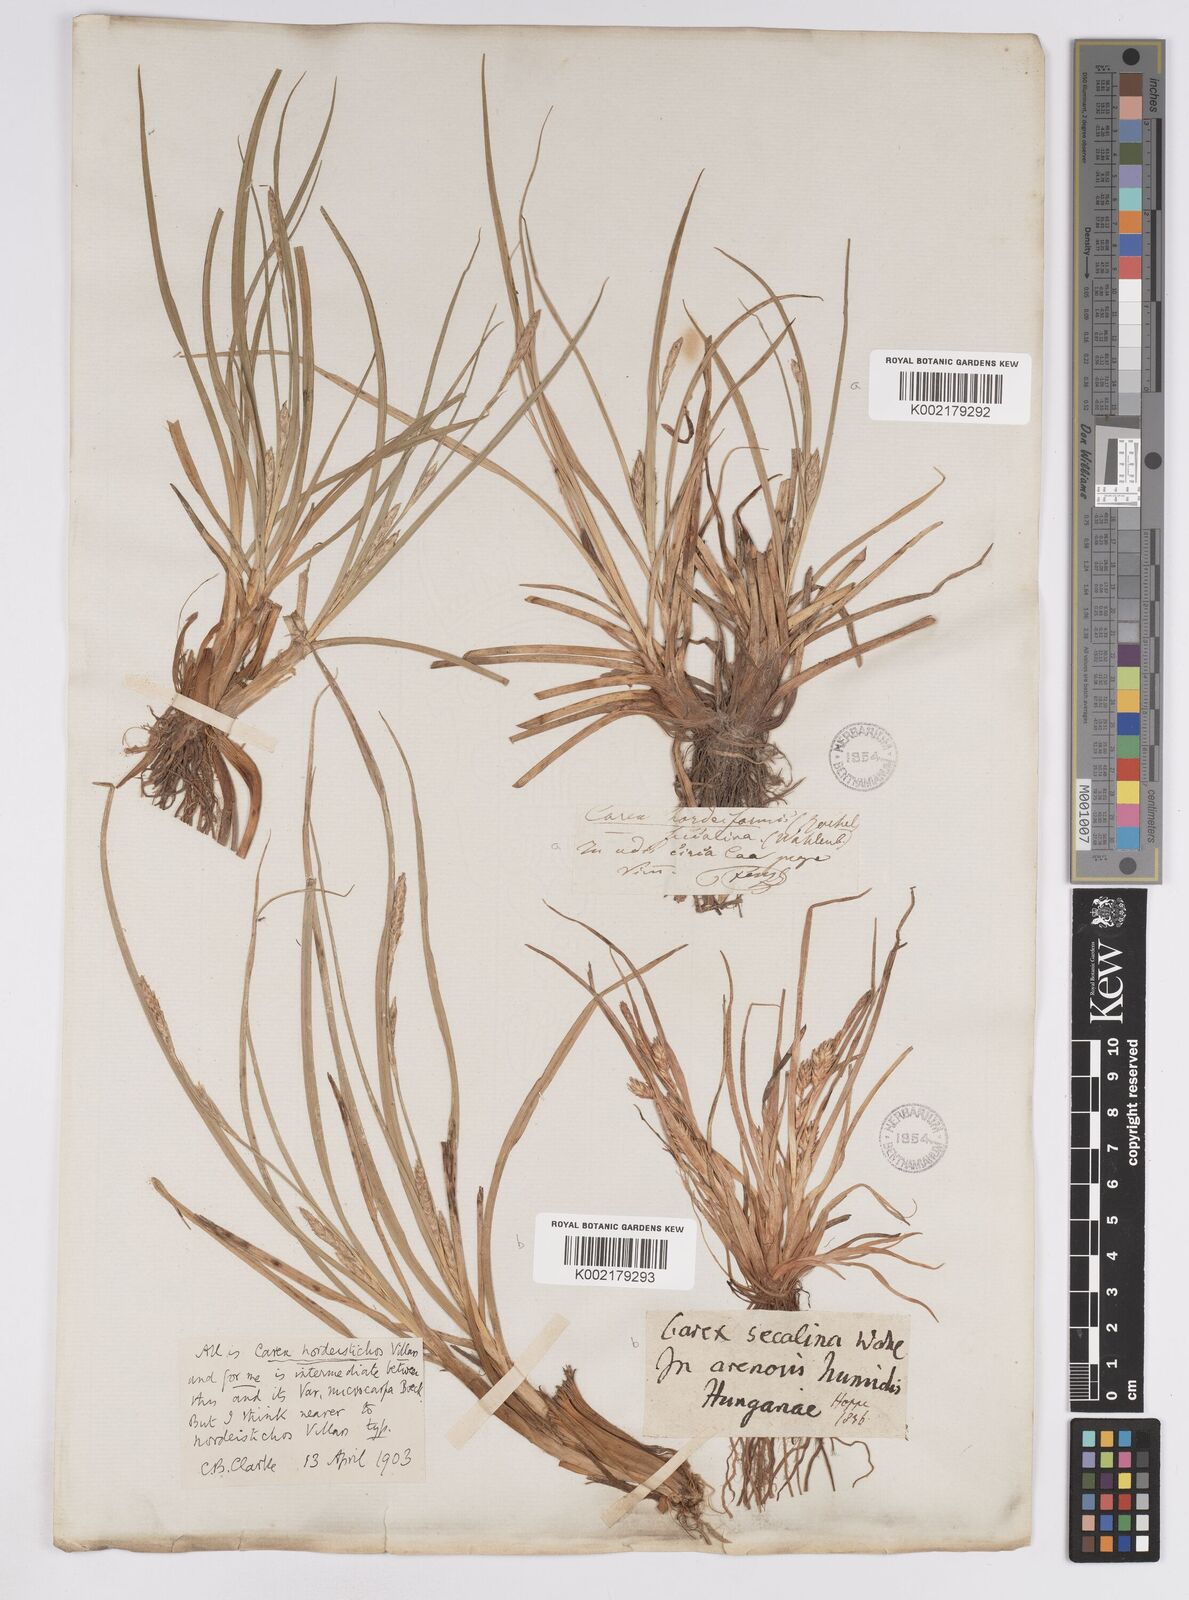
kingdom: Plantae
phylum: Tracheophyta
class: Liliopsida
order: Poales
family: Cyperaceae
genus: Carex
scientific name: Carex hordeistichos
